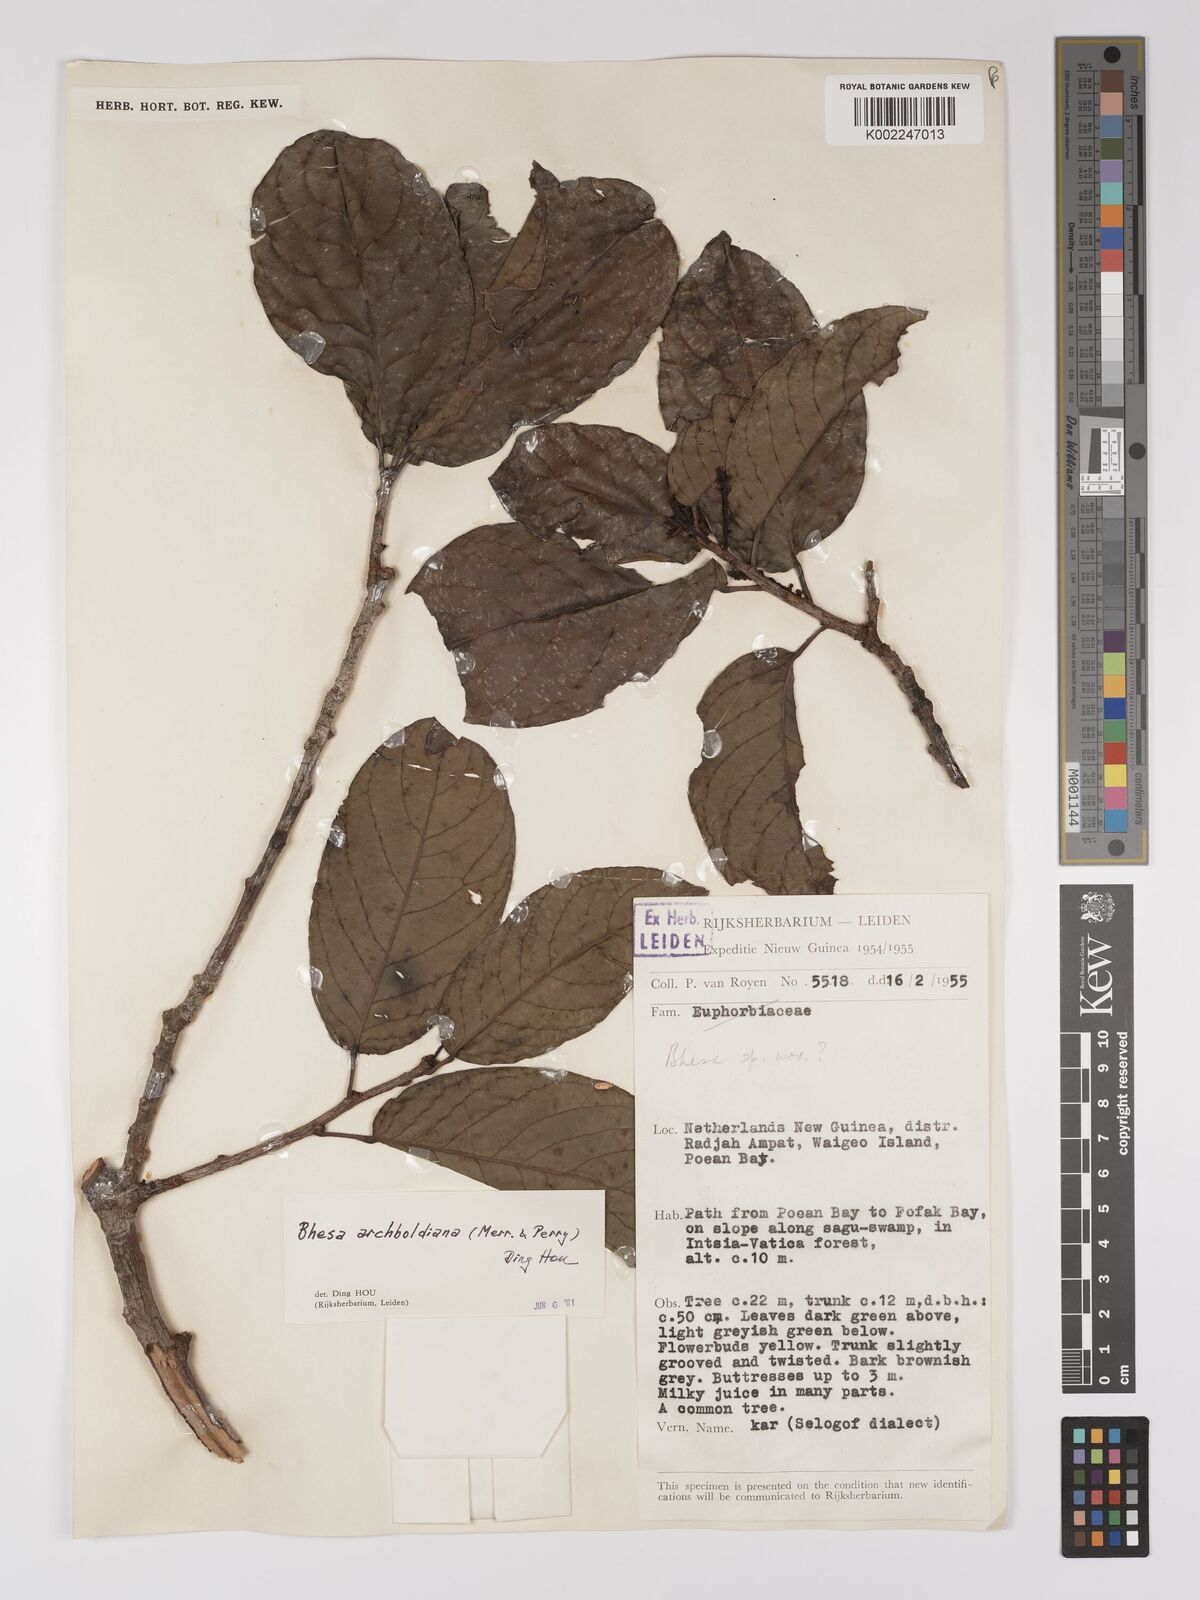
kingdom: Plantae
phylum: Tracheophyta
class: Magnoliopsida
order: Malpighiales
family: Centroplacaceae
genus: Bhesa
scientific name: Bhesa archboldiana
